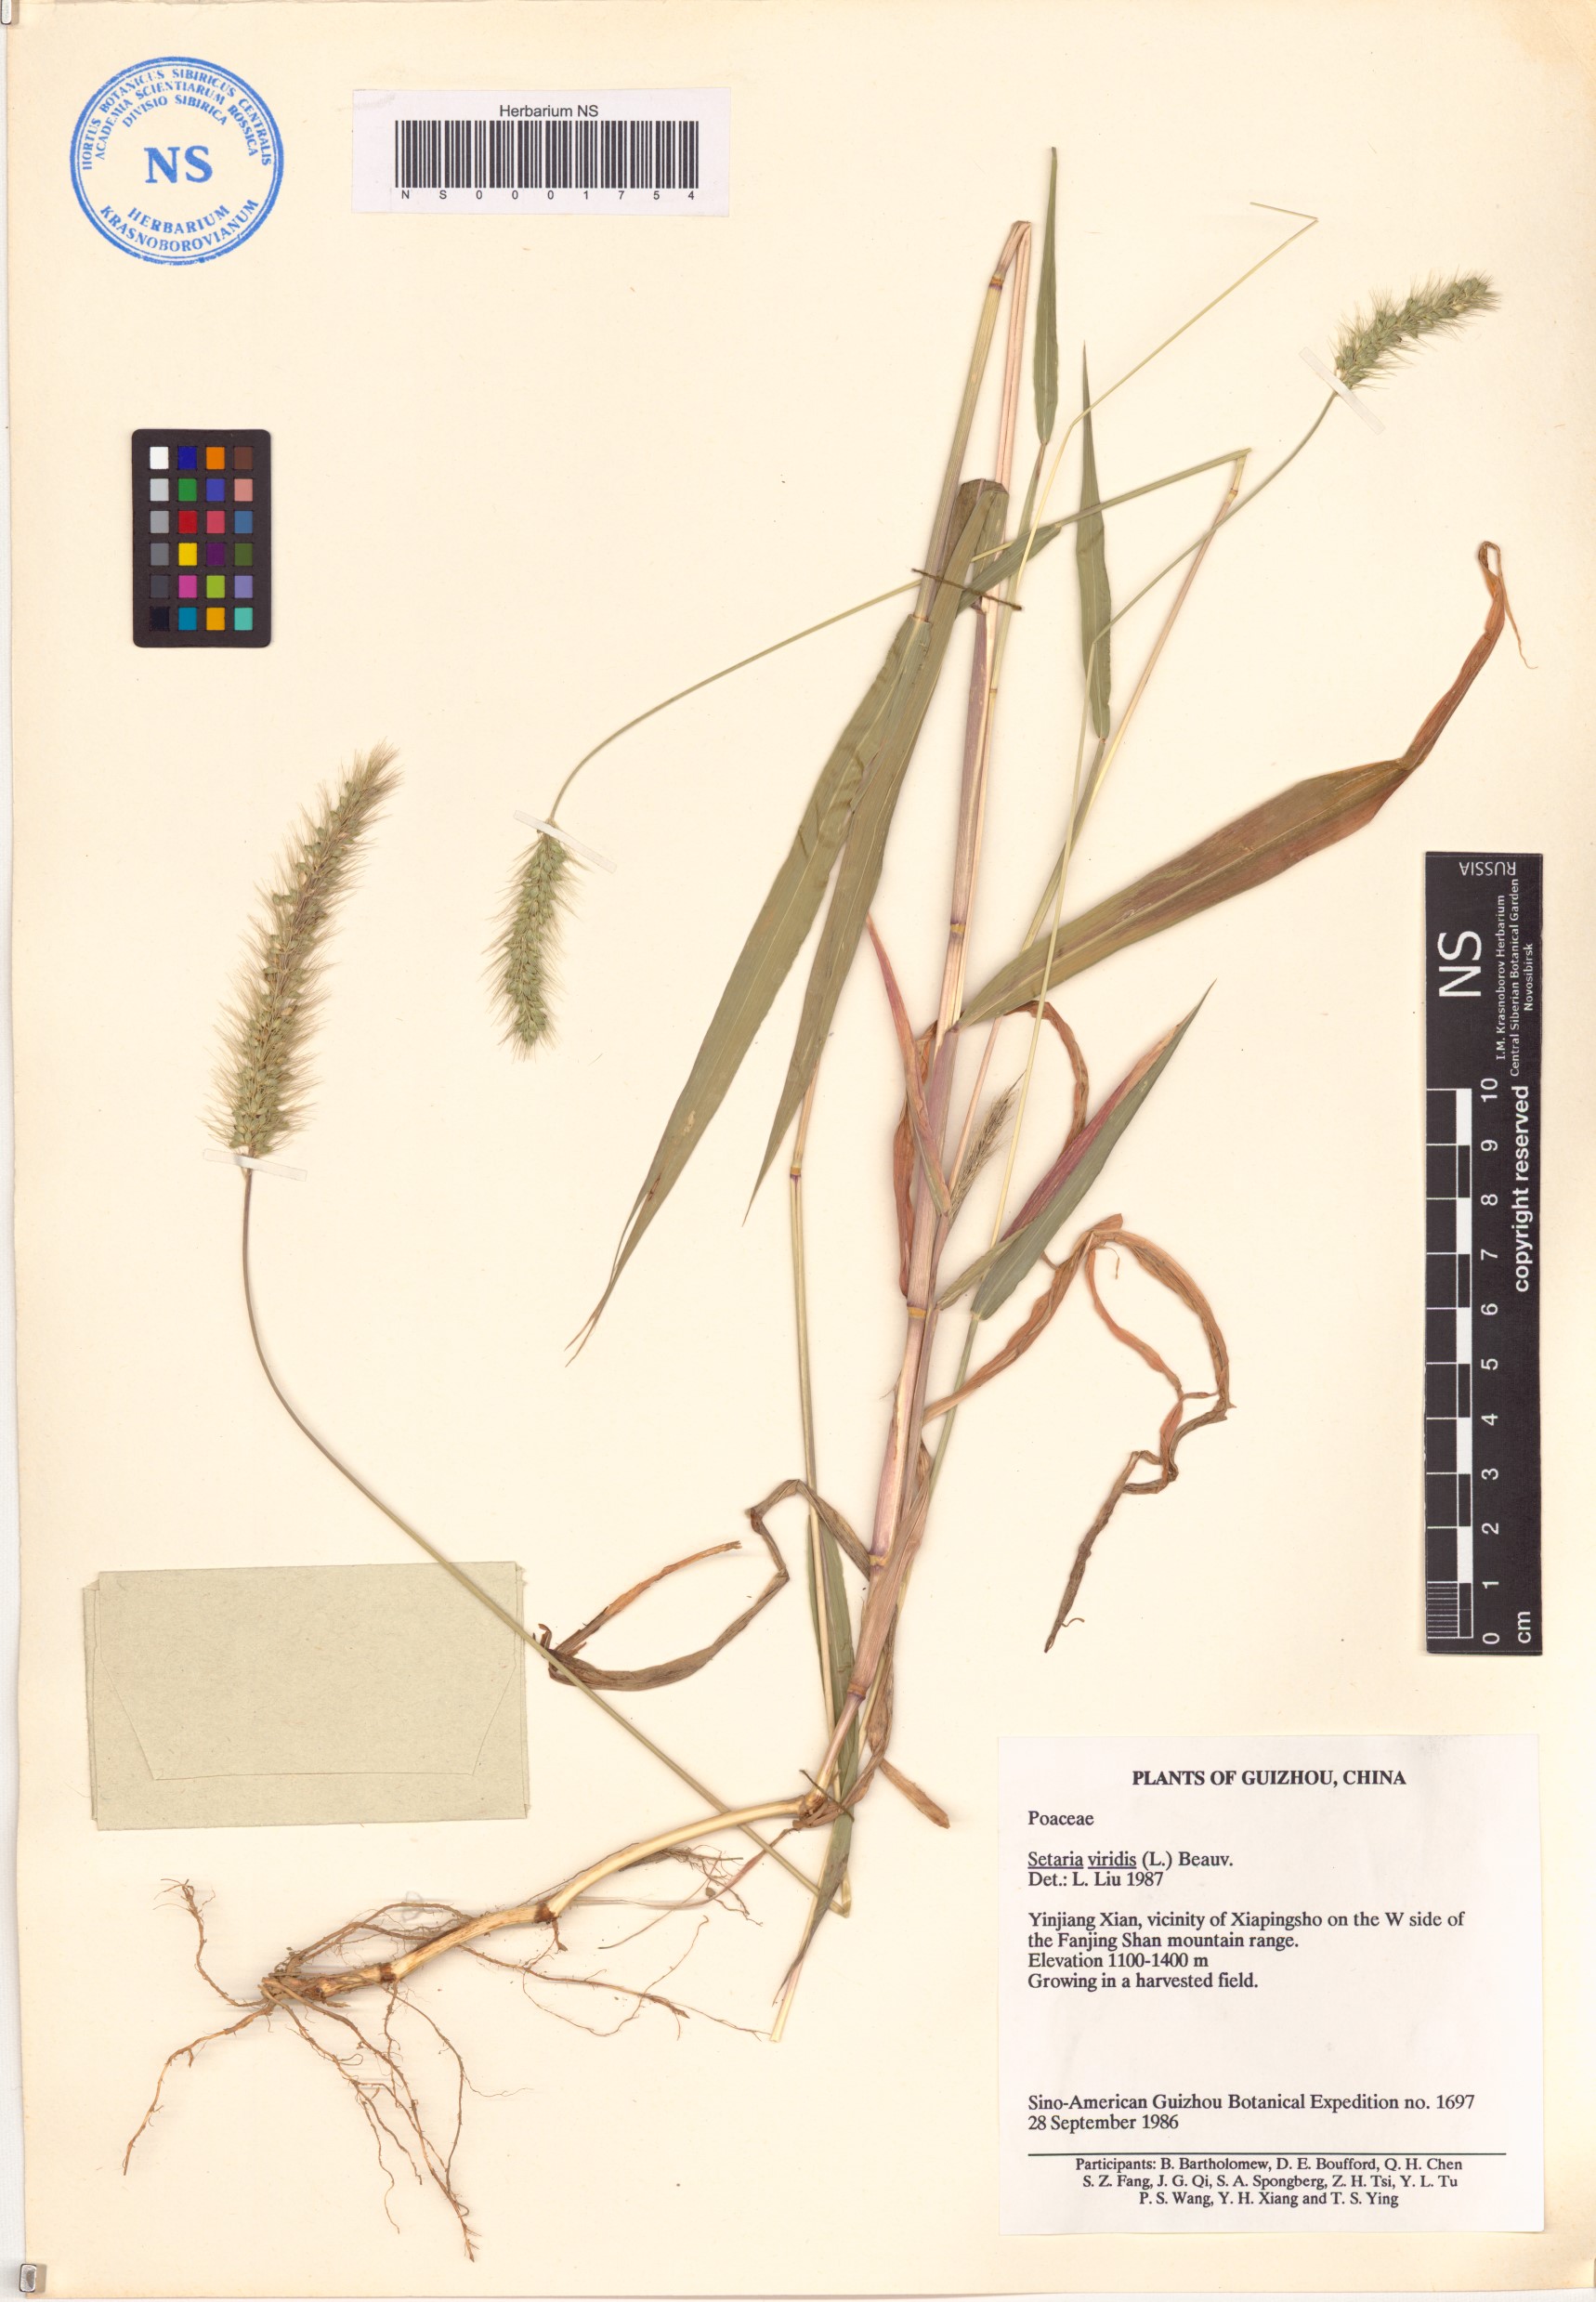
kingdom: Plantae
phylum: Tracheophyta
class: Liliopsida
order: Poales
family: Poaceae
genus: Setaria
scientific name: Setaria viridis
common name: Green bristlegrass
